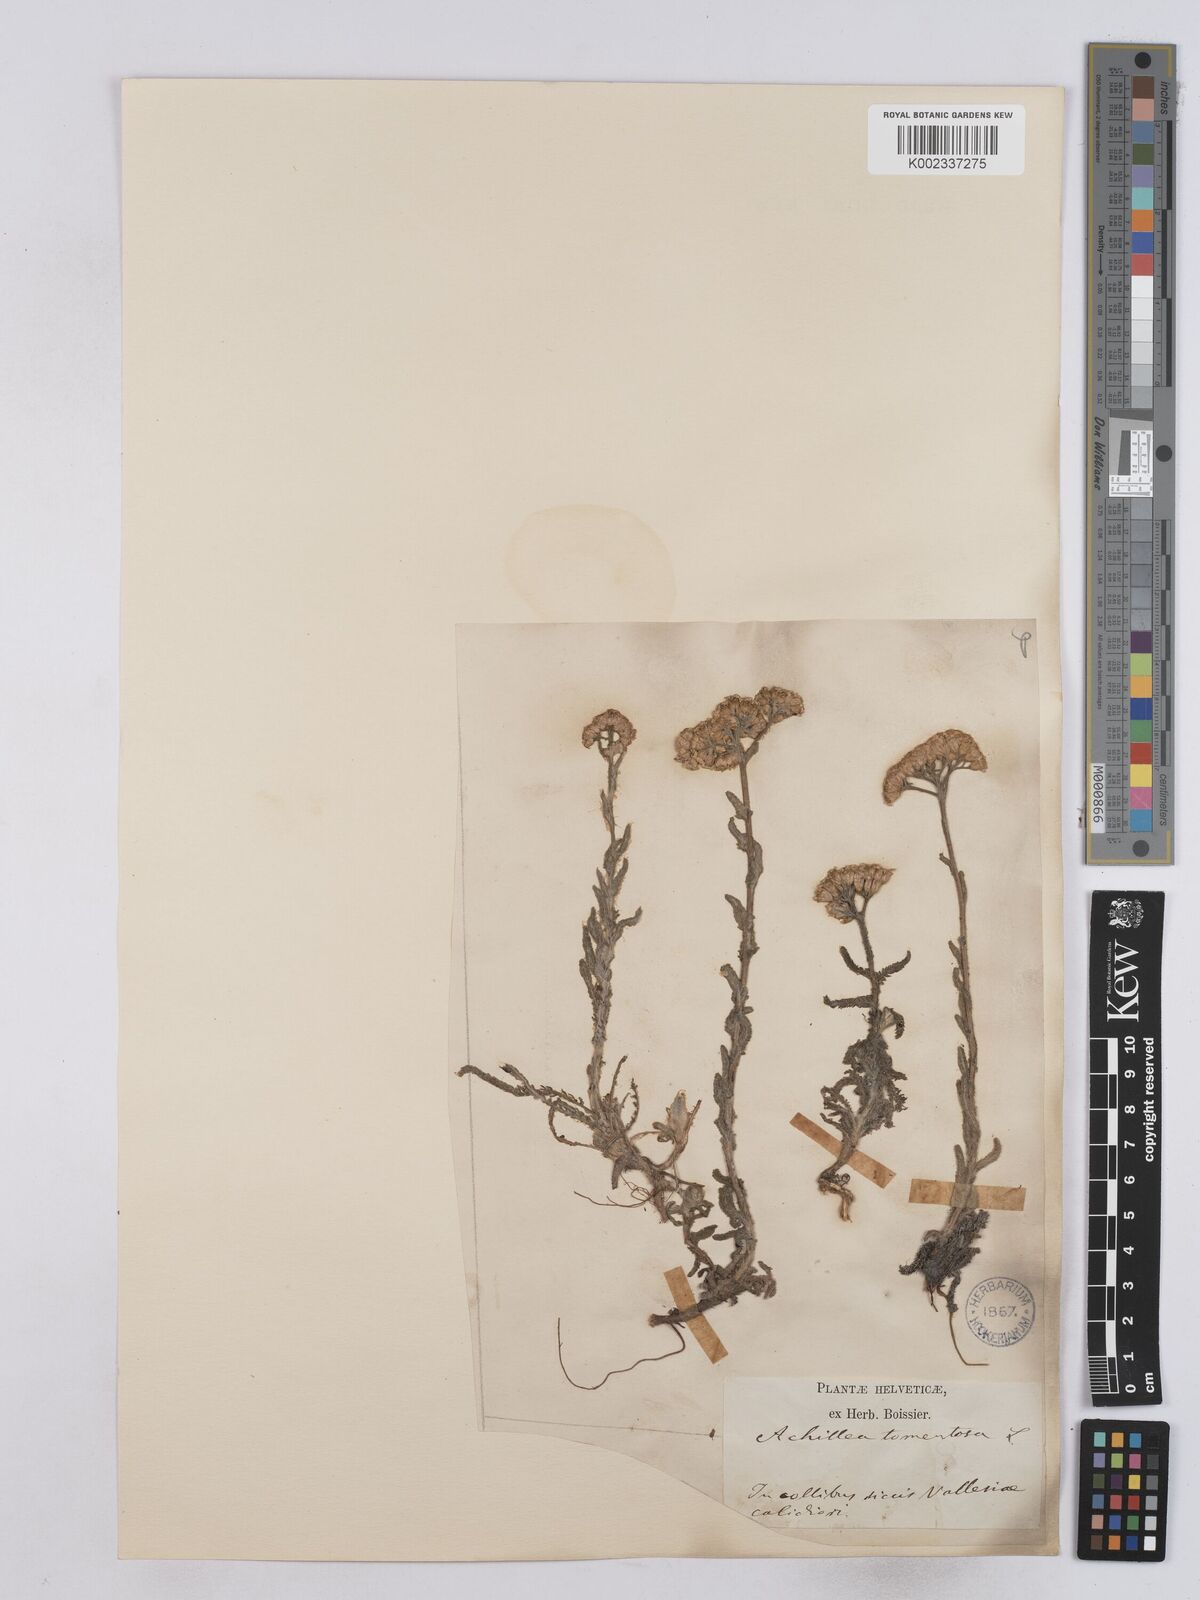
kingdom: Plantae
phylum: Tracheophyta
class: Magnoliopsida
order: Asterales
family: Asteraceae
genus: Achillea
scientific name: Achillea tomentosa
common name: Yellow milfoil
